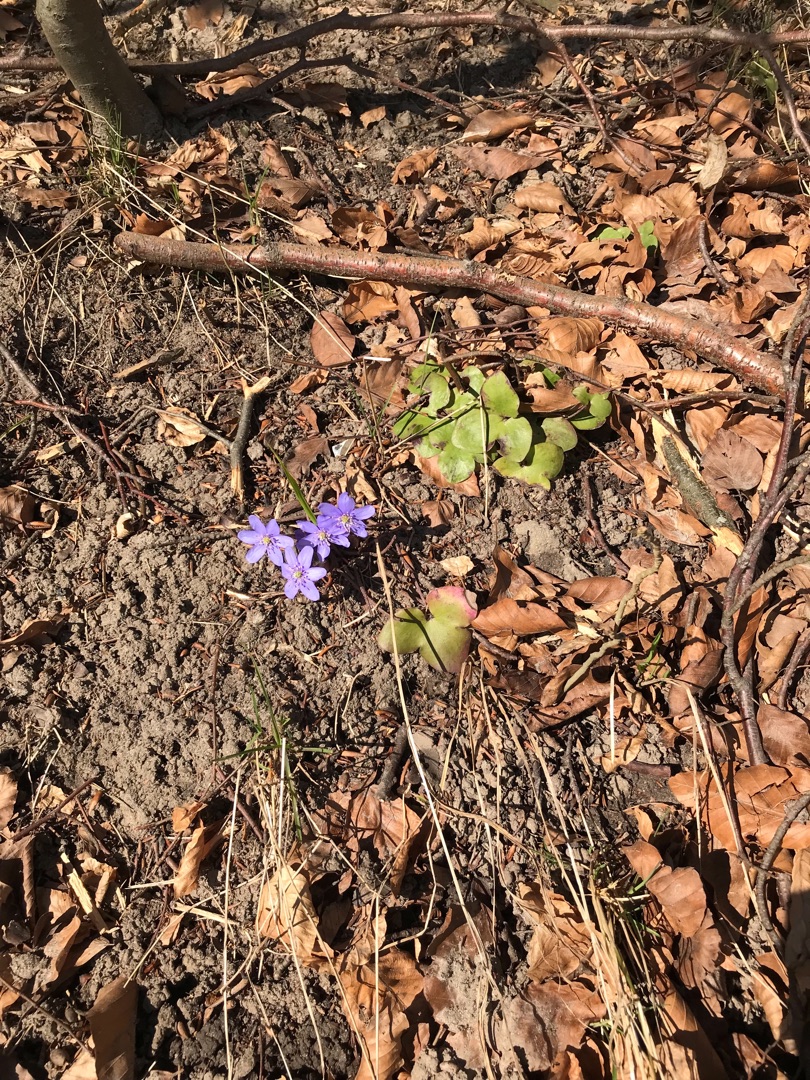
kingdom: Plantae
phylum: Tracheophyta
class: Magnoliopsida
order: Ranunculales
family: Ranunculaceae
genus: Hepatica
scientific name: Hepatica nobilis
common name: Blå anemone
